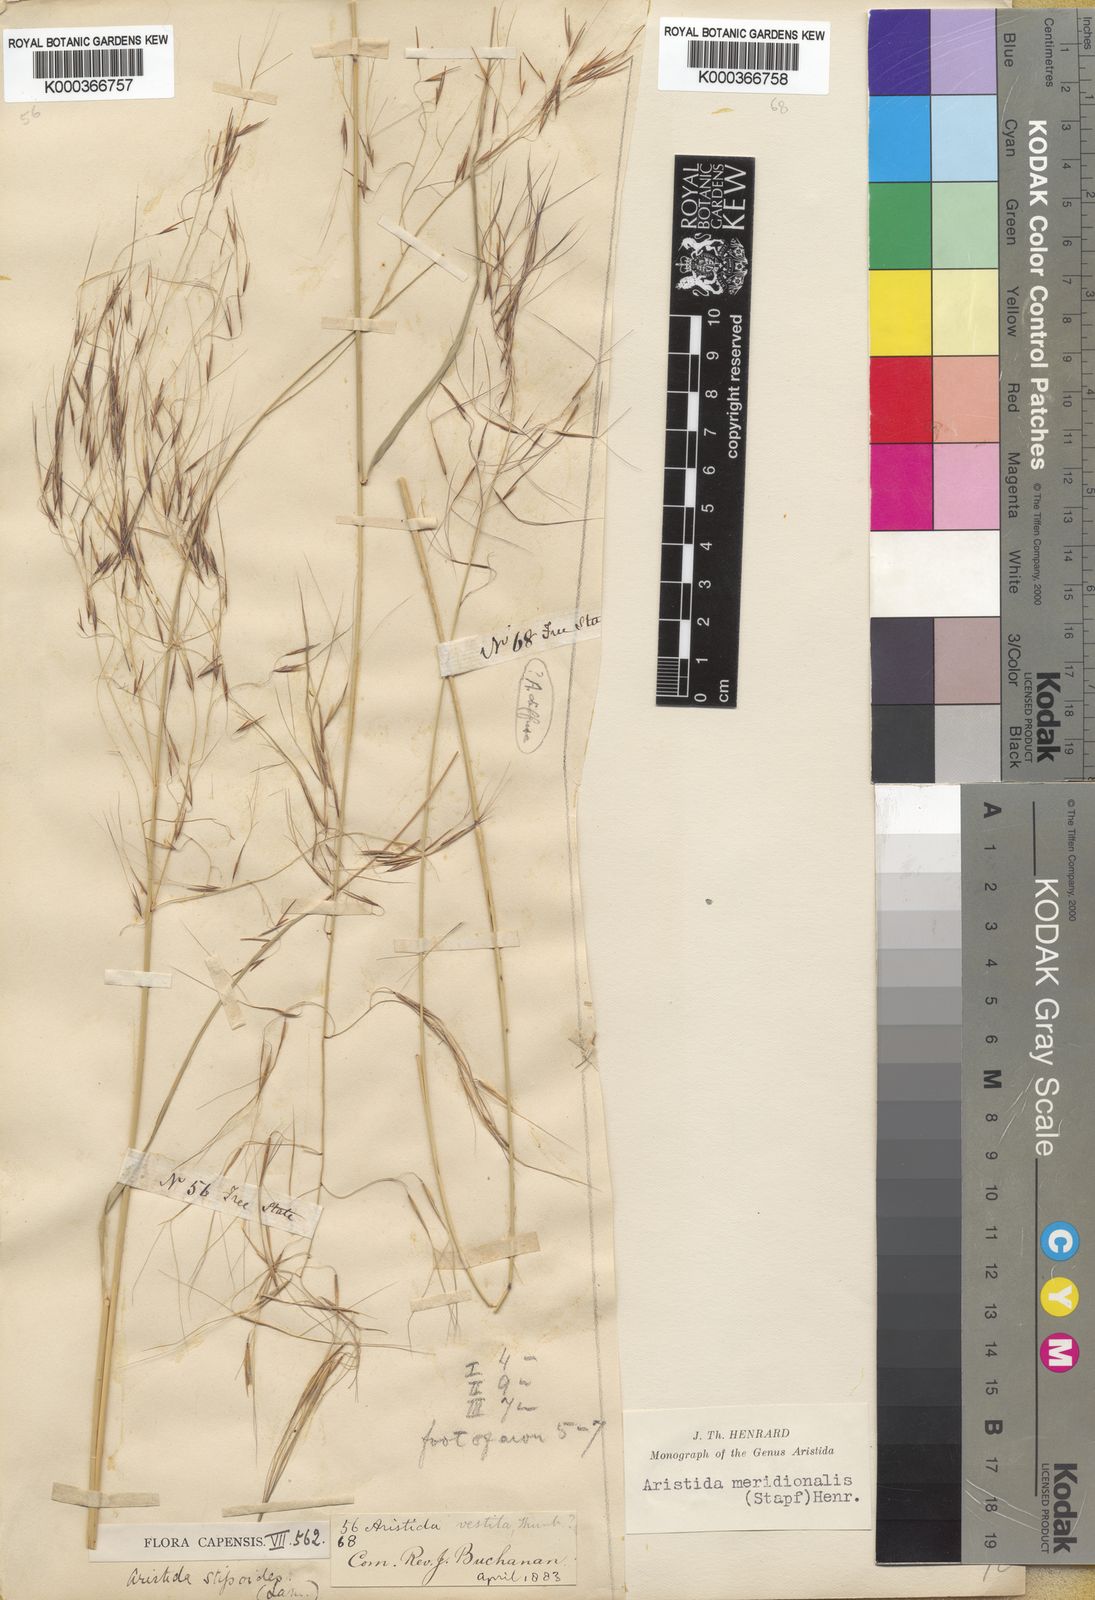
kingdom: Plantae
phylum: Tracheophyta
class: Liliopsida
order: Poales
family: Poaceae
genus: Aristida
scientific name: Aristida meridionalis
